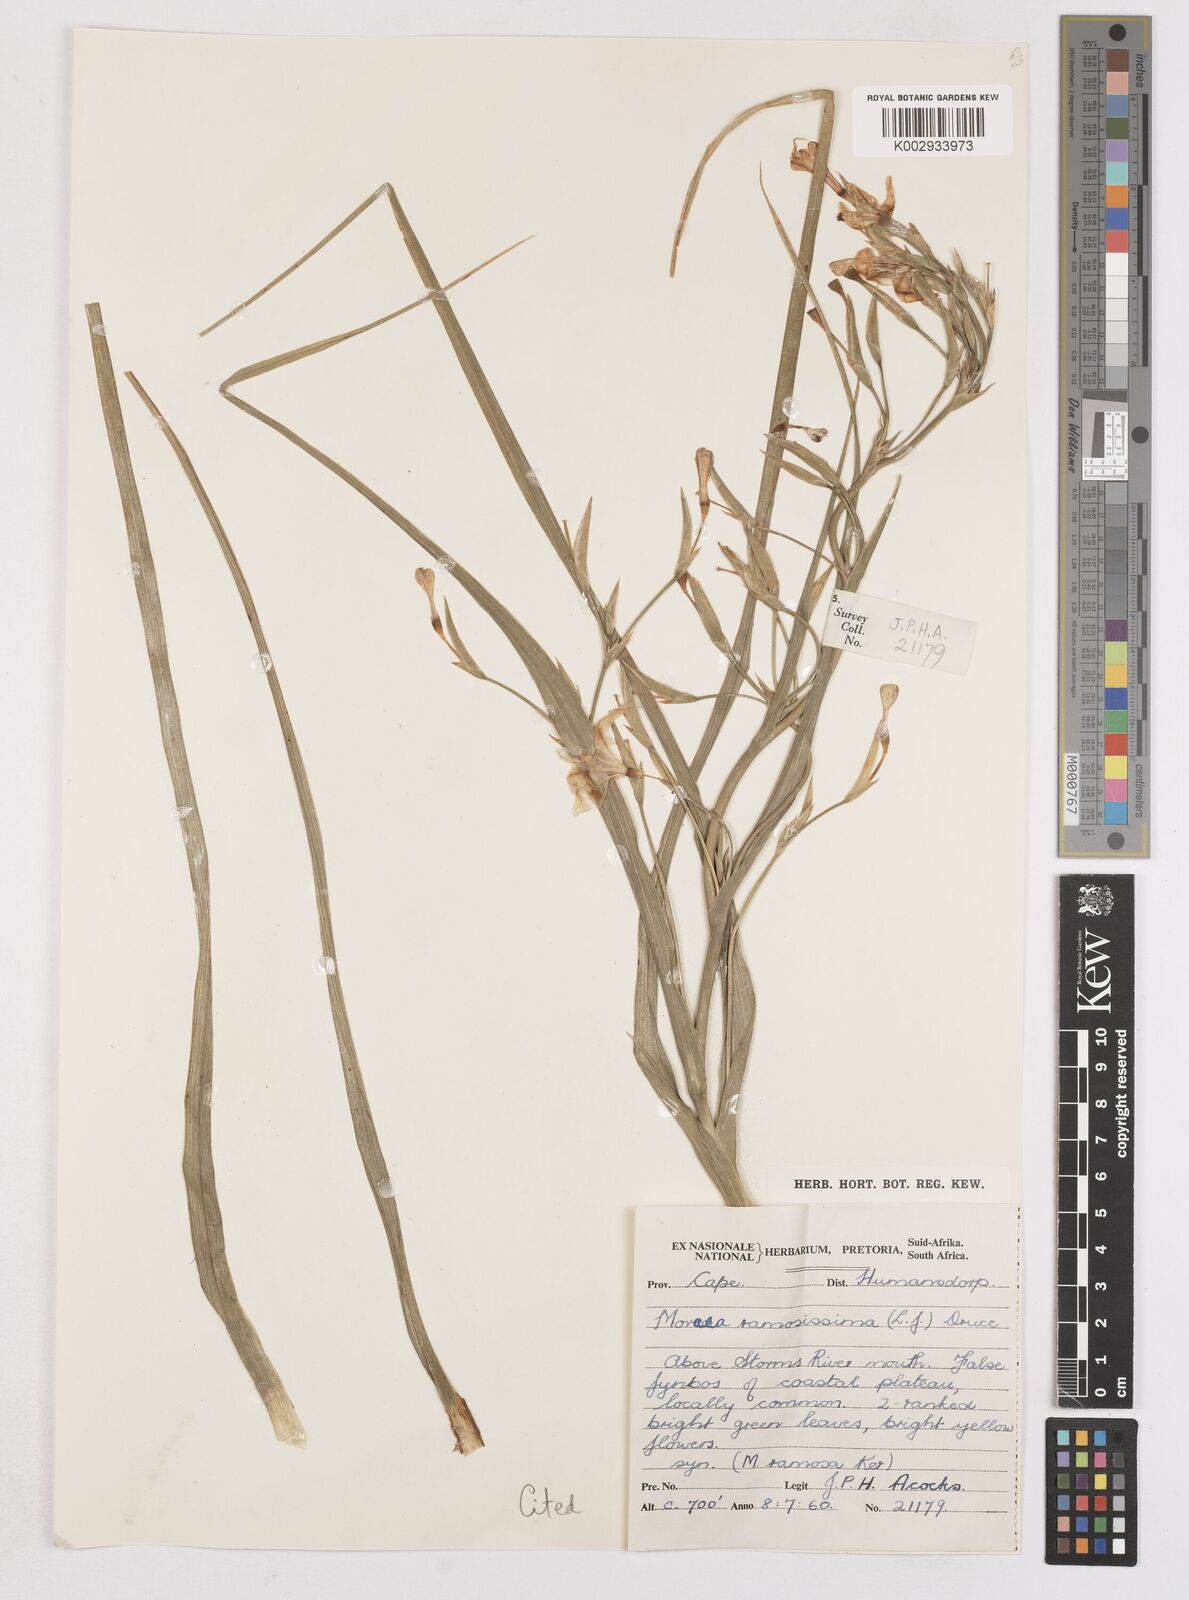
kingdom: Plantae
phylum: Tracheophyta
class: Liliopsida
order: Asparagales
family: Iridaceae
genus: Moraea
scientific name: Moraea ramosissima
